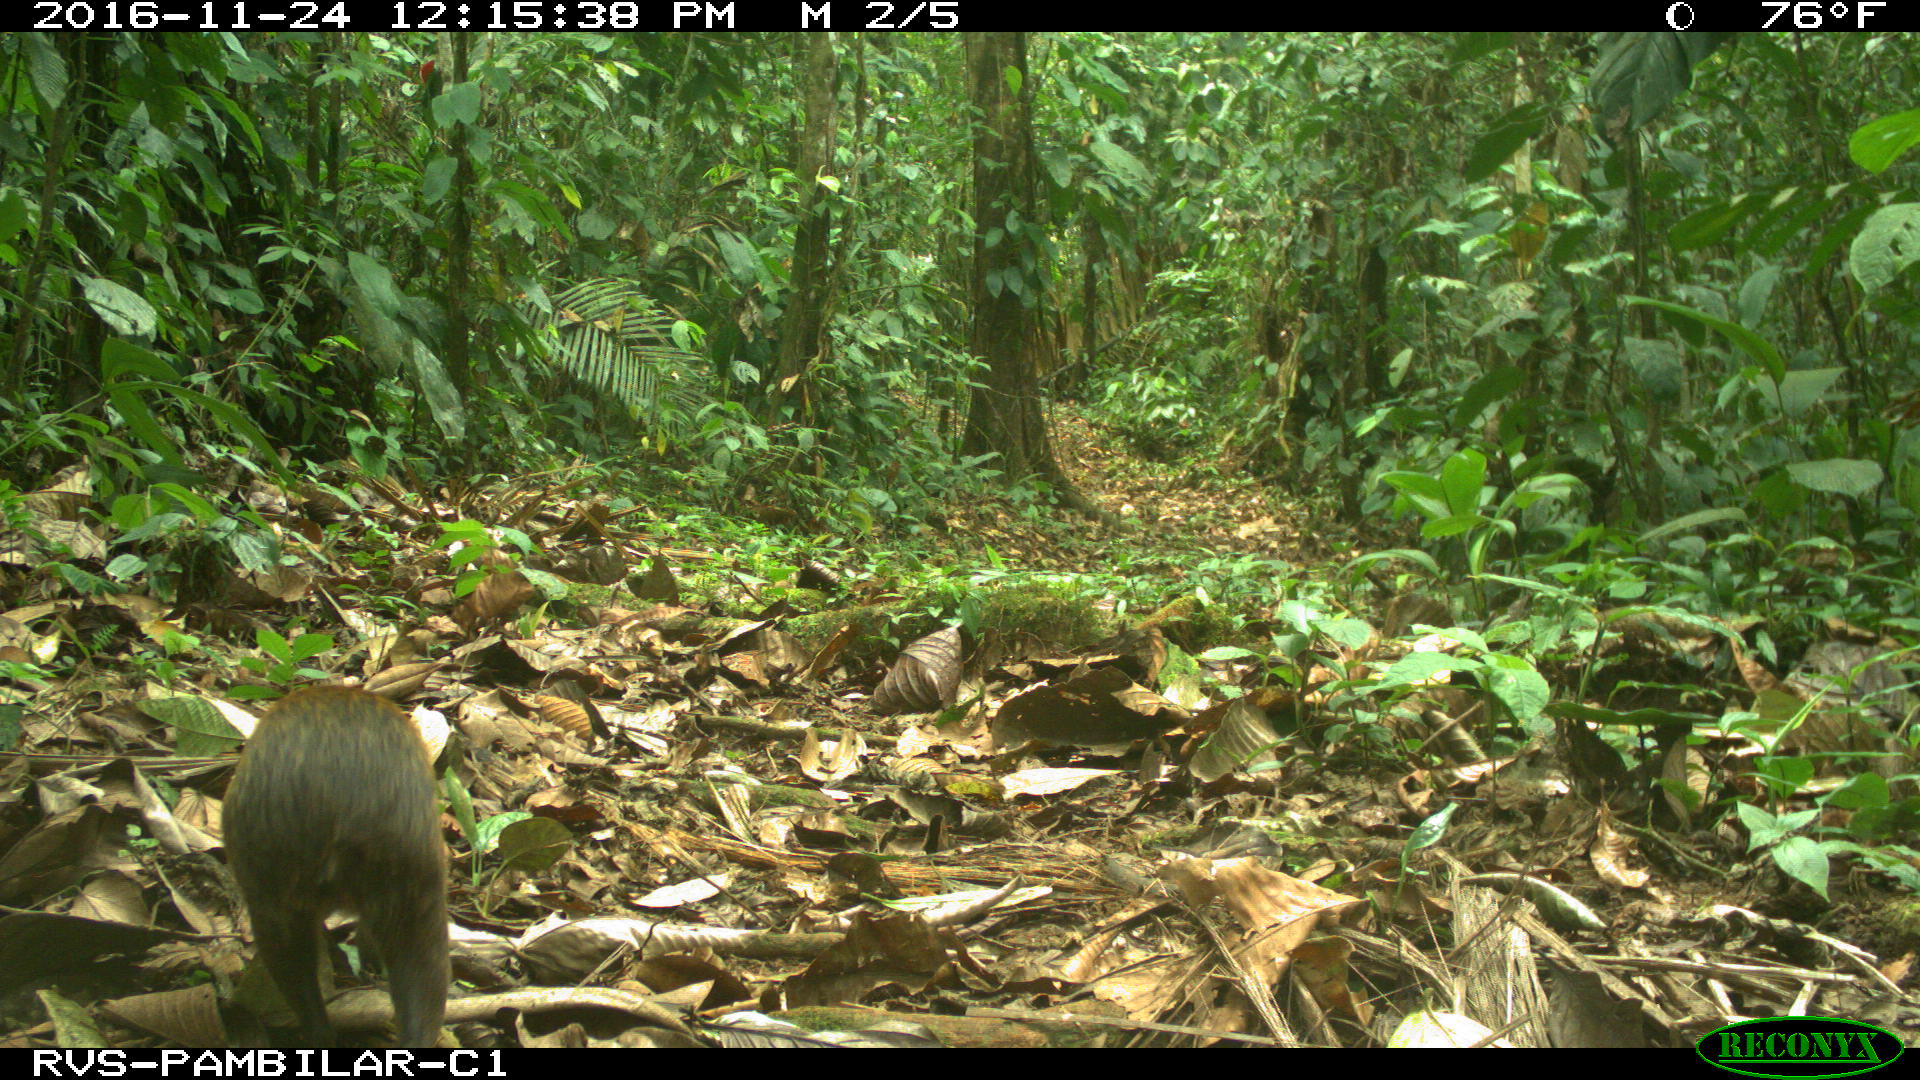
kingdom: Animalia
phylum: Chordata
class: Mammalia
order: Rodentia
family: Dasyproctidae
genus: Dasyprocta
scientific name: Dasyprocta punctata
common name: Central american agouti
